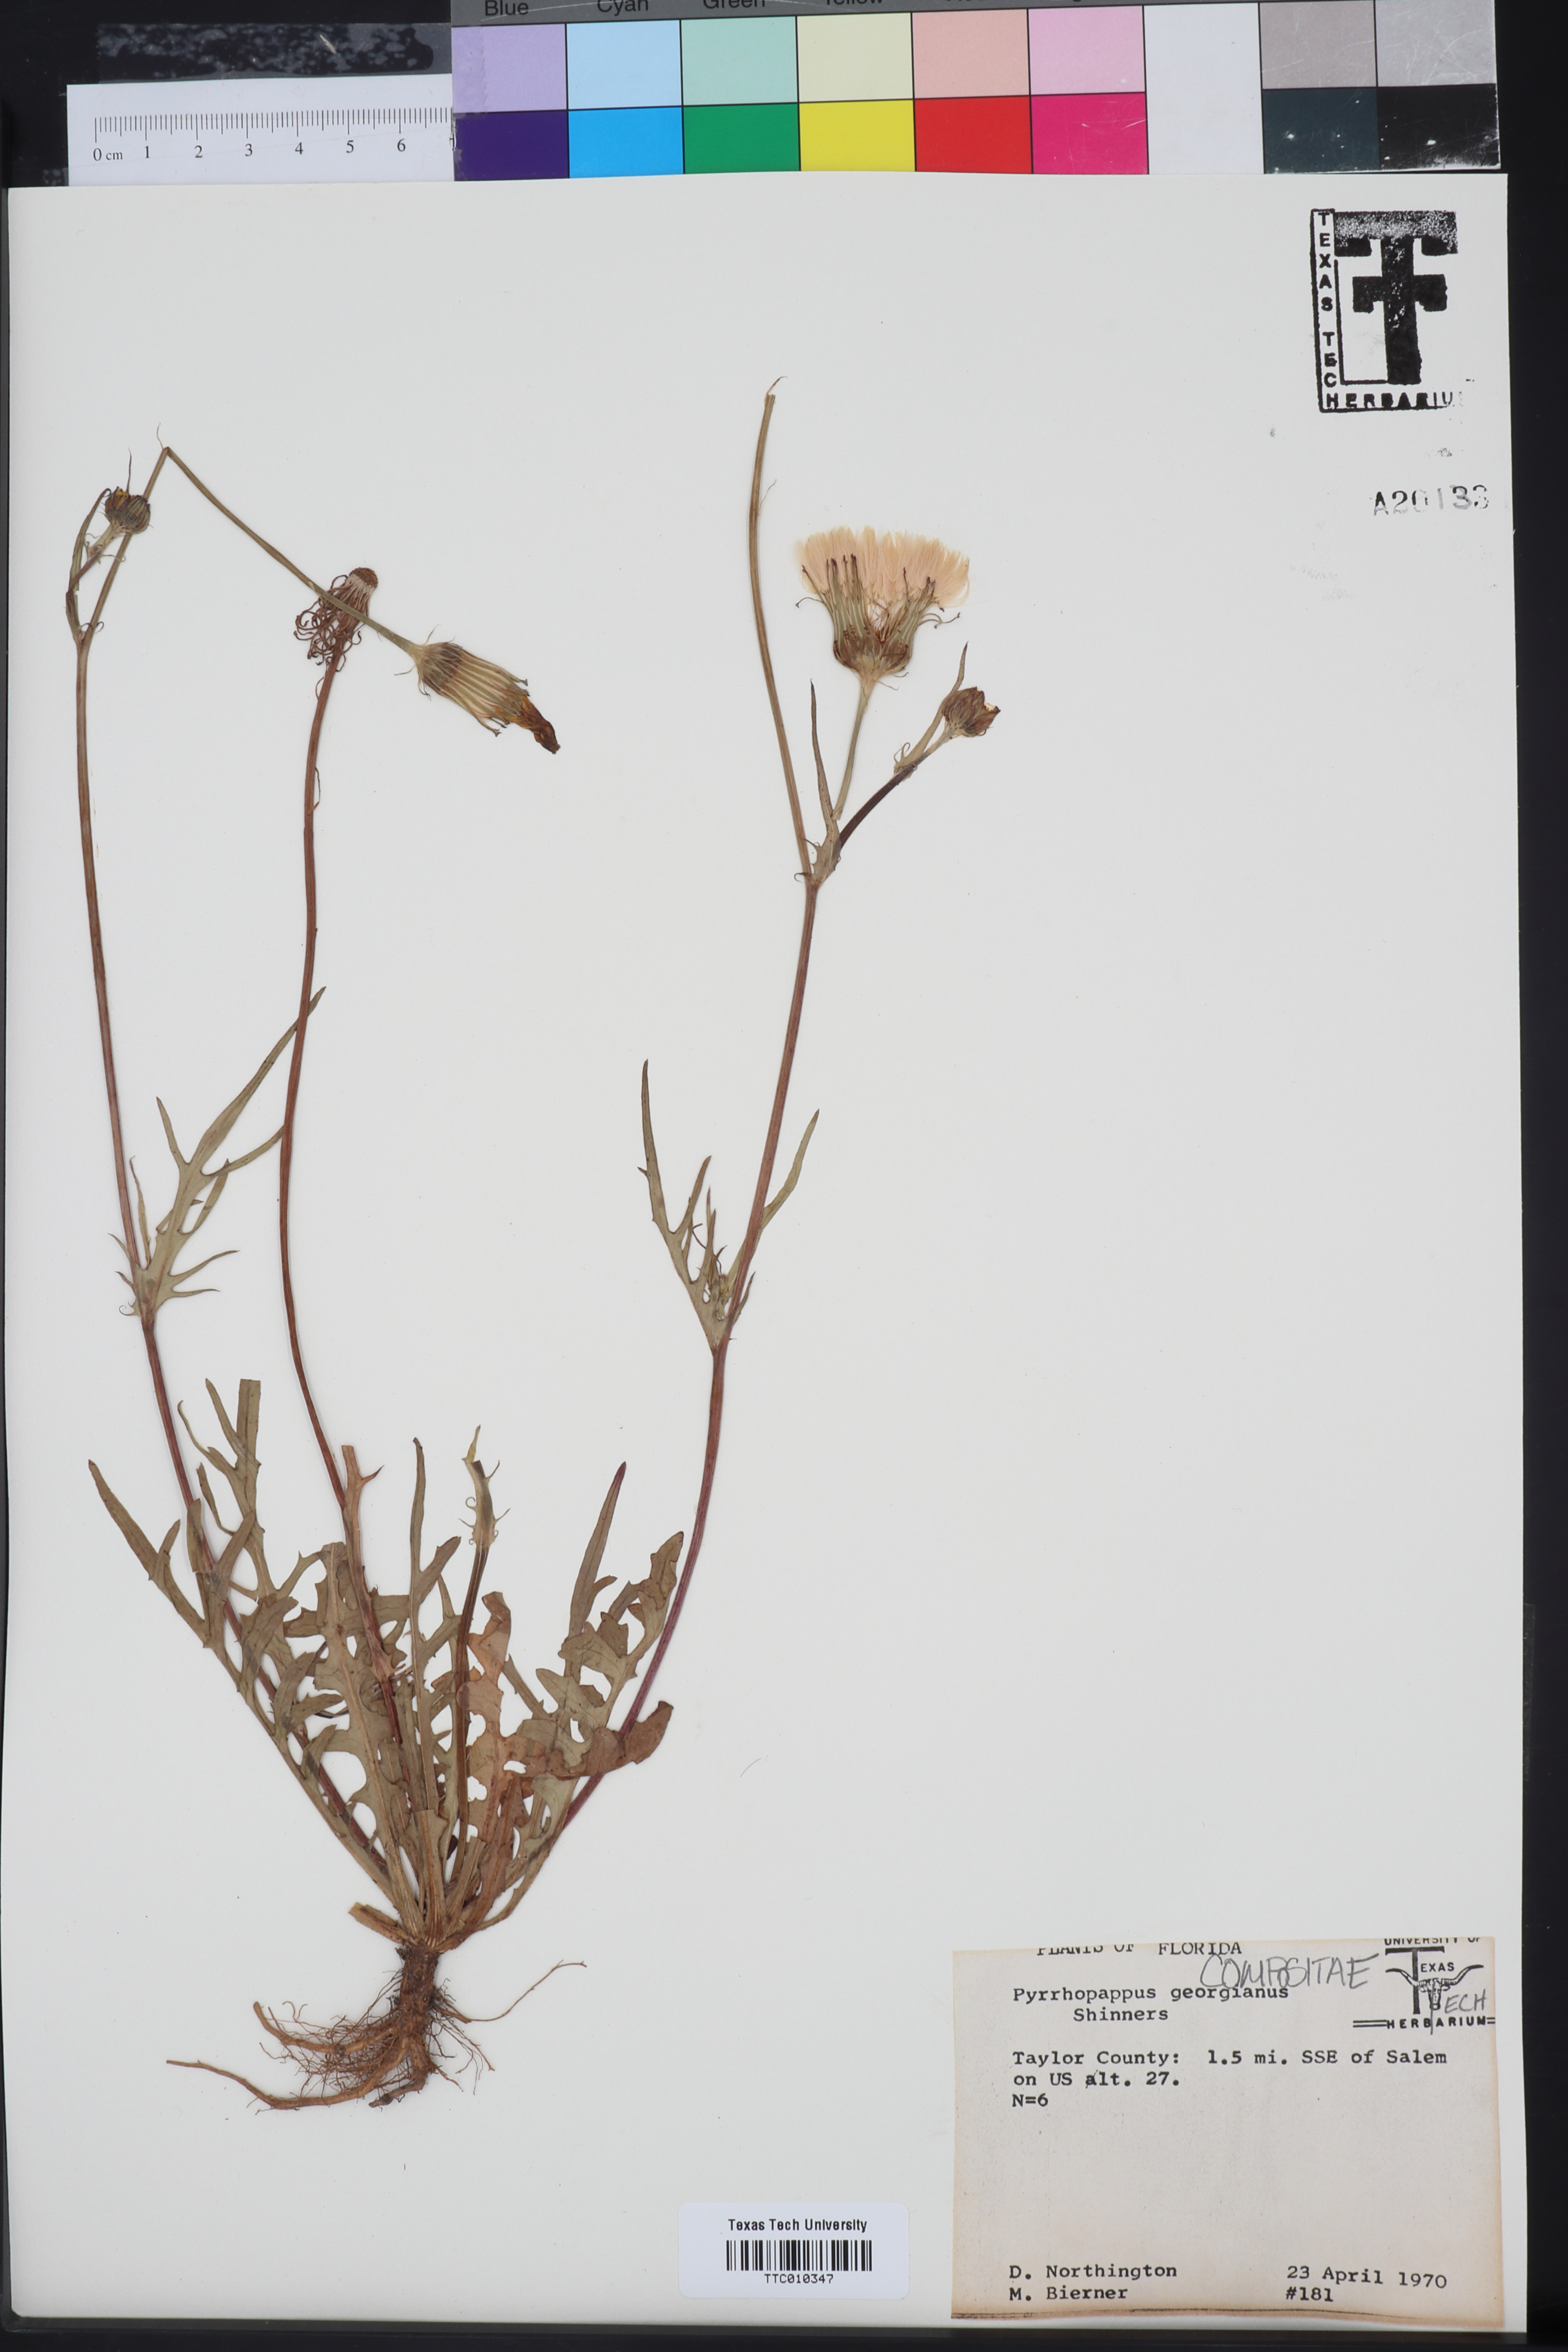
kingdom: Plantae
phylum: Tracheophyta
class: Magnoliopsida
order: Asterales
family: Asteraceae
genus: Pyrrhopappus
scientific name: Pyrrhopappus carolinianus
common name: Carolina desert-chicory
